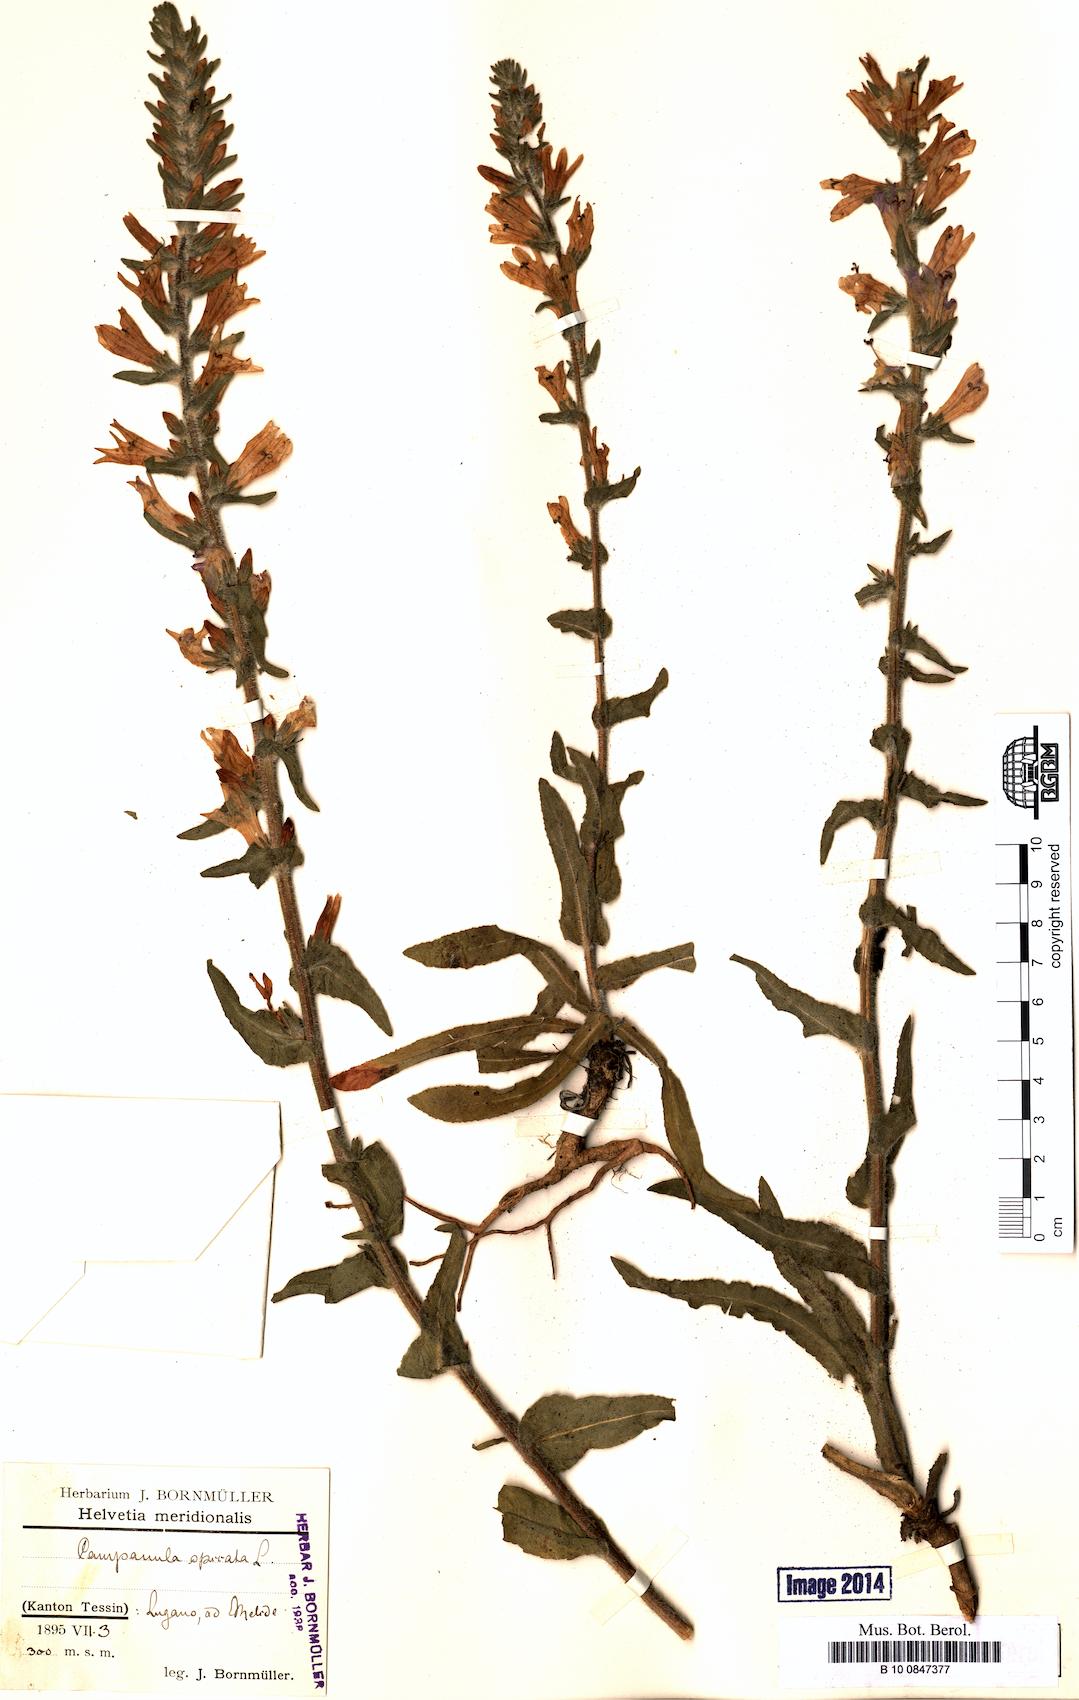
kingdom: Plantae
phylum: Tracheophyta
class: Magnoliopsida
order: Asterales
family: Campanulaceae
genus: Campanula
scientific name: Campanula spicata
